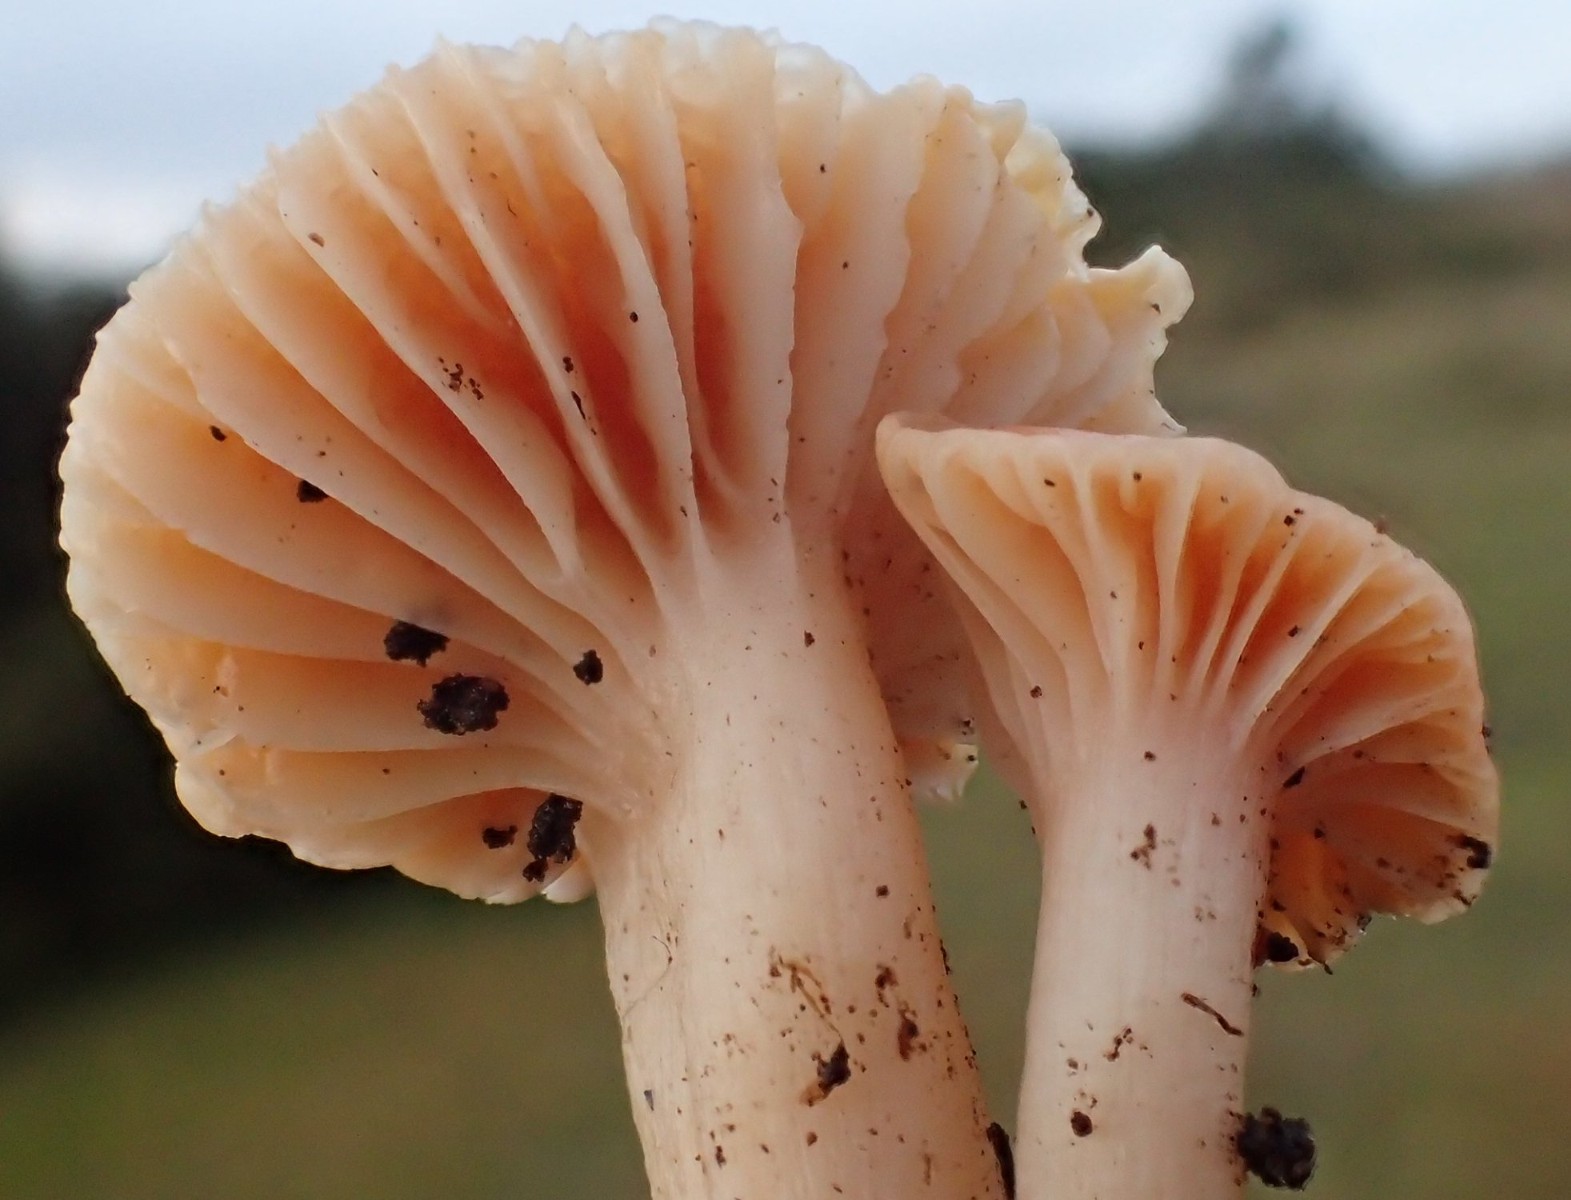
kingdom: Fungi
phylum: Basidiomycota
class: Agaricomycetes
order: Agaricales
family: Hygrophoraceae
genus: Cuphophyllus
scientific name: Cuphophyllus pratensis
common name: eng-vokshat
